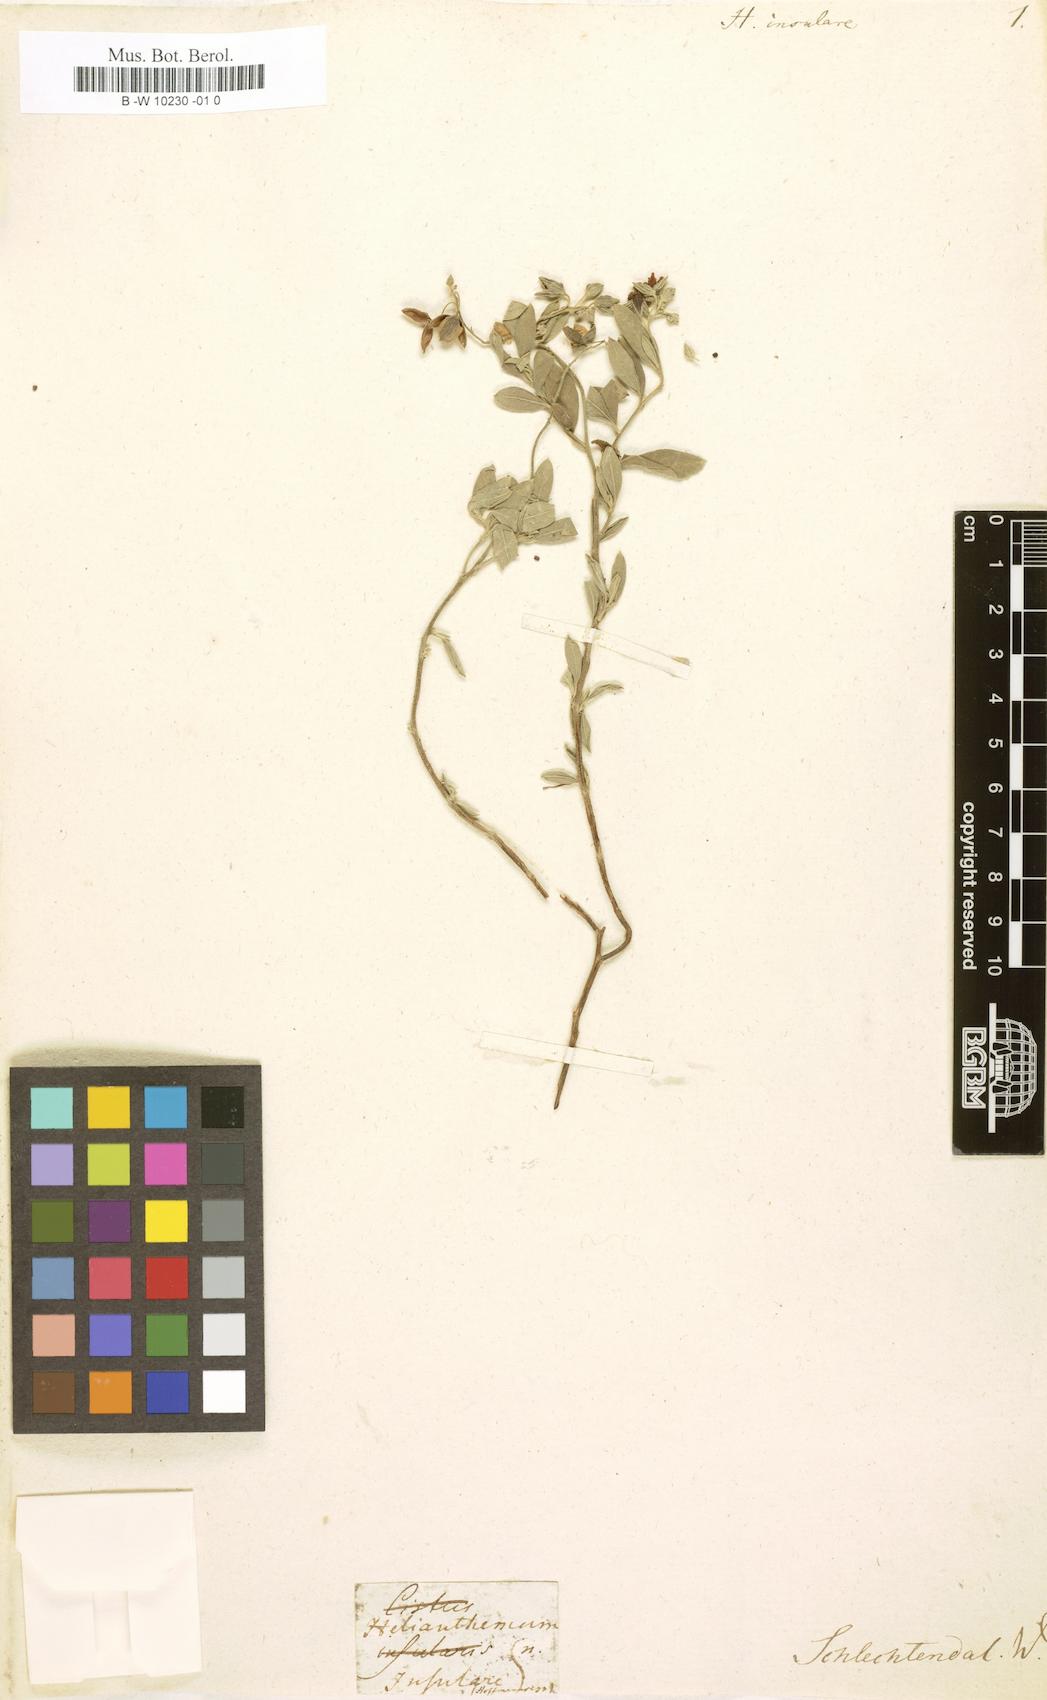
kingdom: Plantae
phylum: Tracheophyta
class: Magnoliopsida
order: Malvales
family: Cistaceae
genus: Helianthemum
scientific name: Helianthemum
